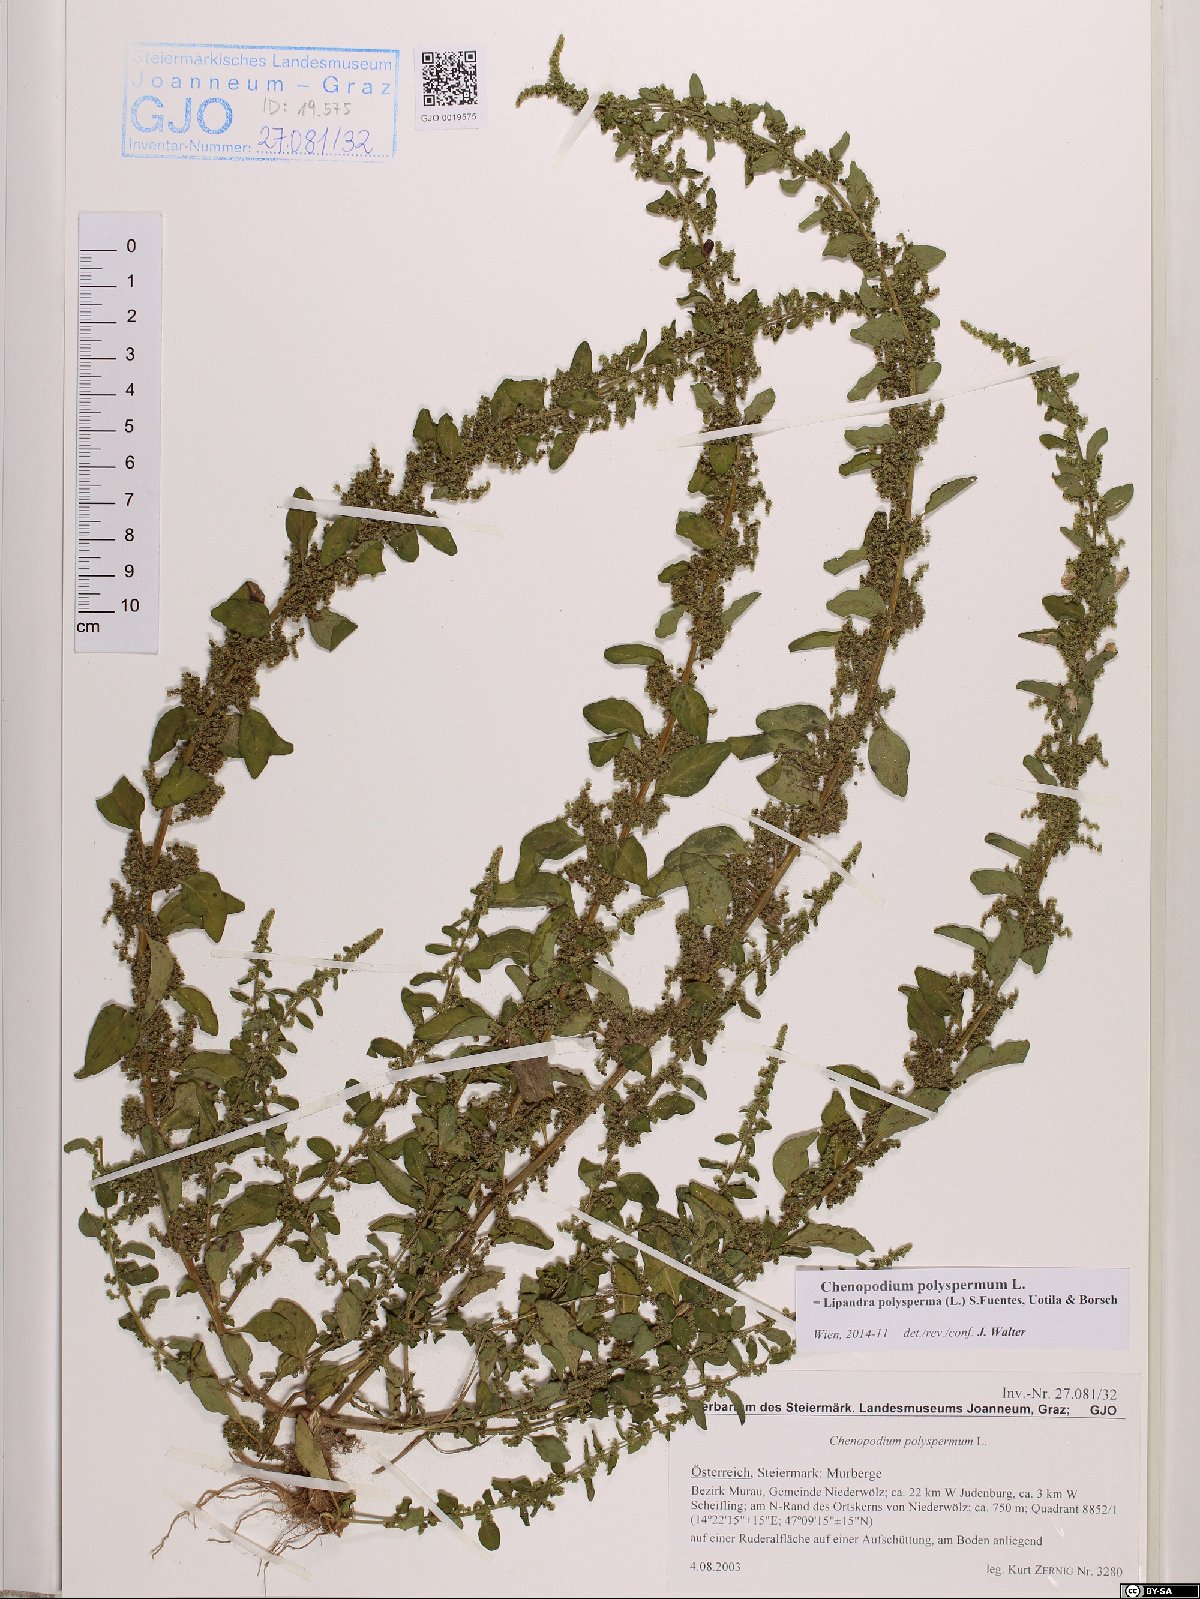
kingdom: Plantae
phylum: Tracheophyta
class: Magnoliopsida
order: Caryophyllales
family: Amaranthaceae
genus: Lipandra
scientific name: Lipandra polysperma
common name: Many-seed goosefoot
